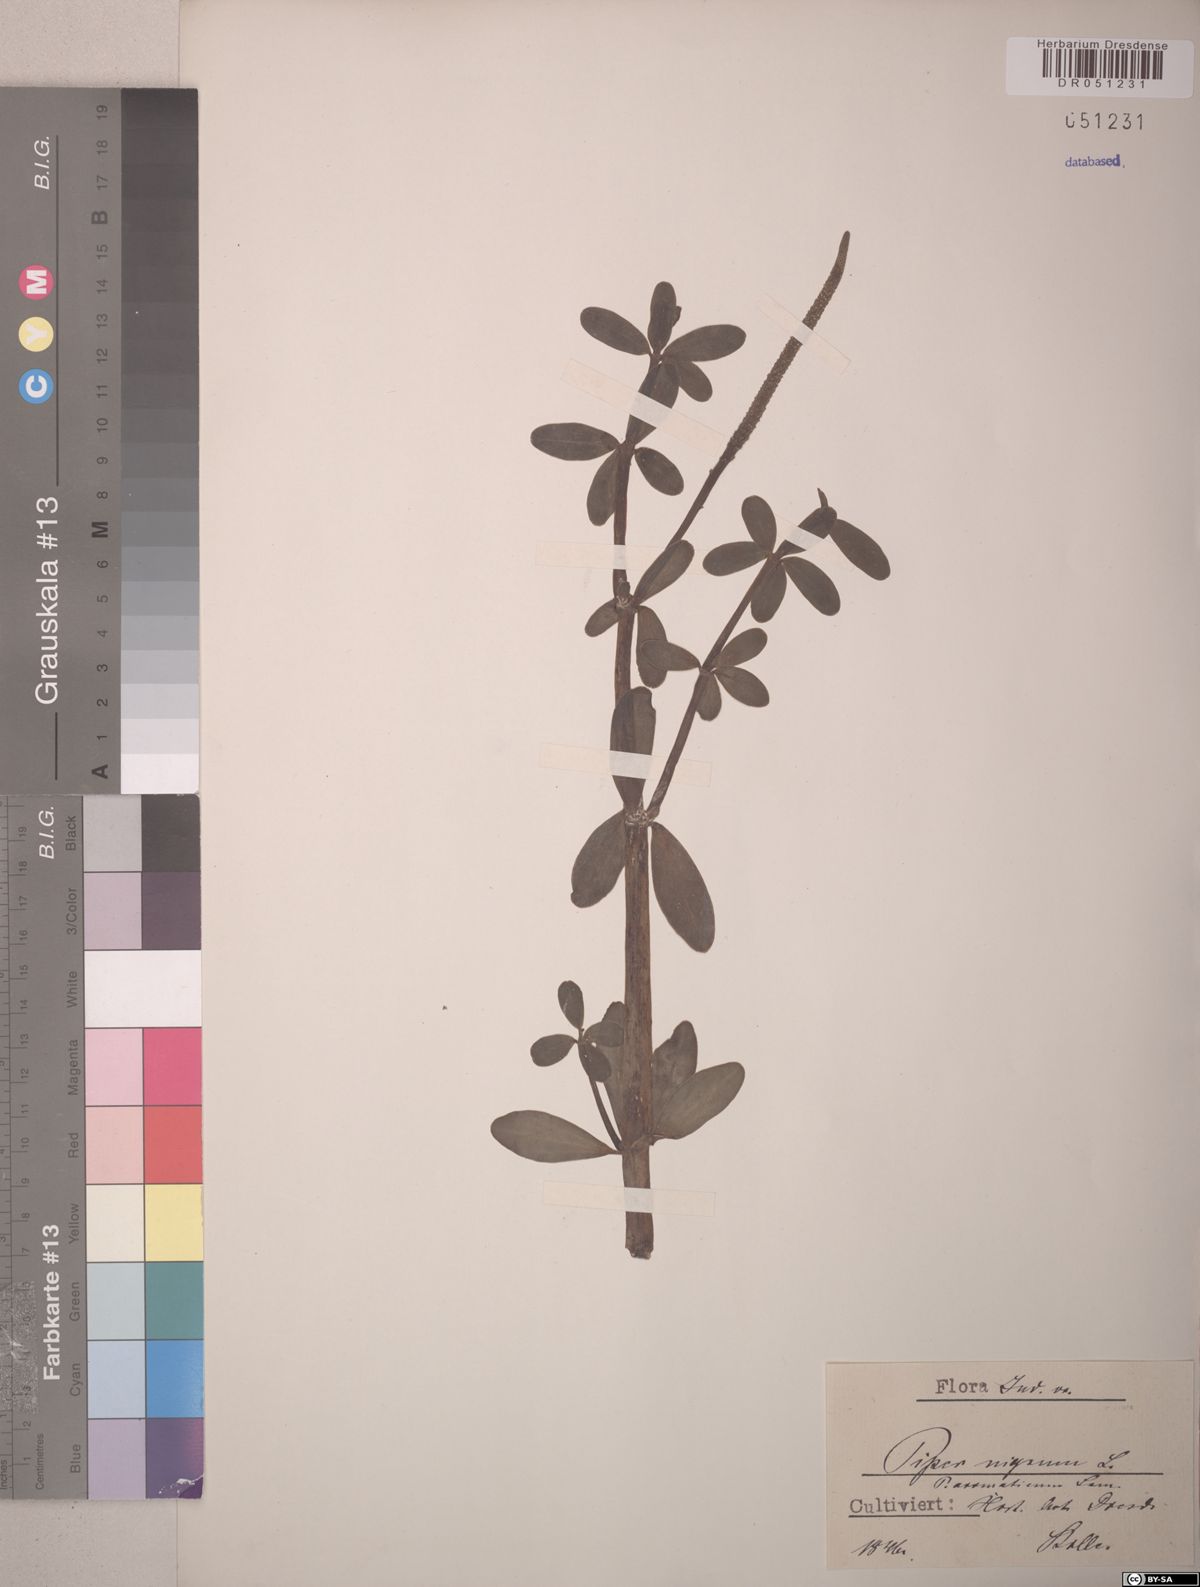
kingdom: Plantae
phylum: Tracheophyta
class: Magnoliopsida
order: Piperales
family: Piperaceae
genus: Piper
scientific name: Piper nigrum
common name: Black pepper
